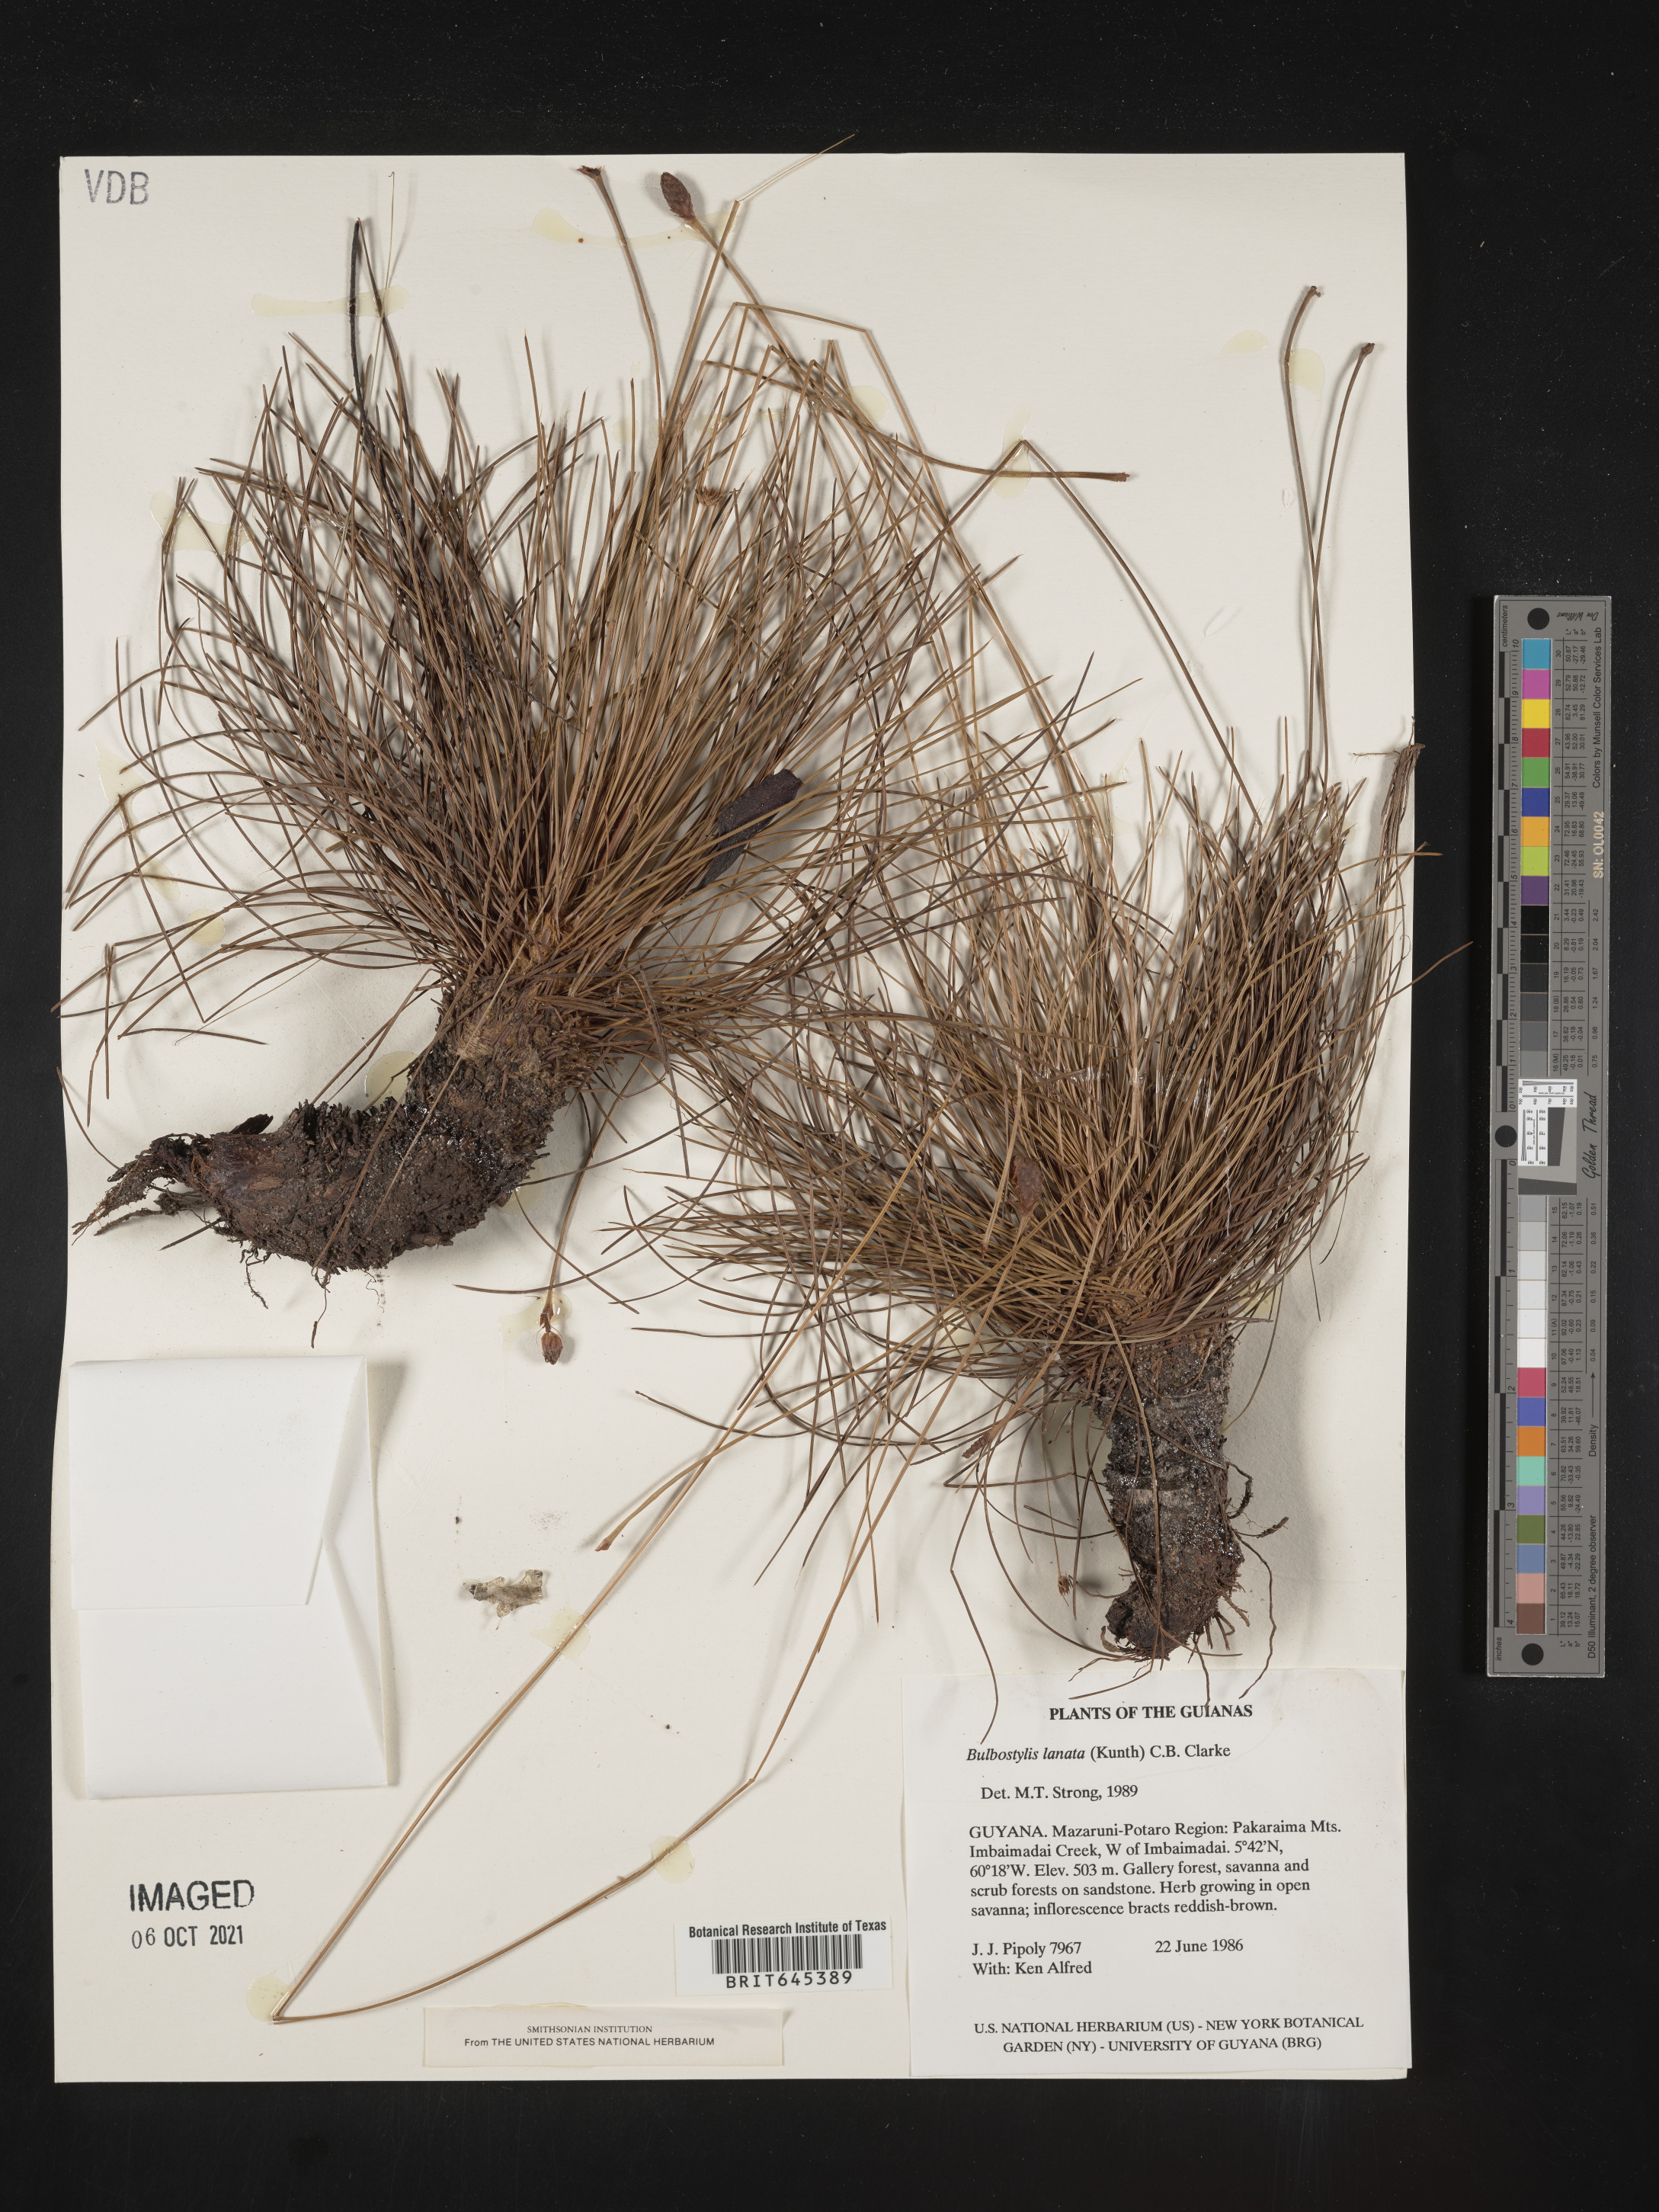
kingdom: Plantae
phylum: Tracheophyta
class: Liliopsida
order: Poales
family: Cyperaceae
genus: Bulbostylis
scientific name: Bulbostylis lanata
